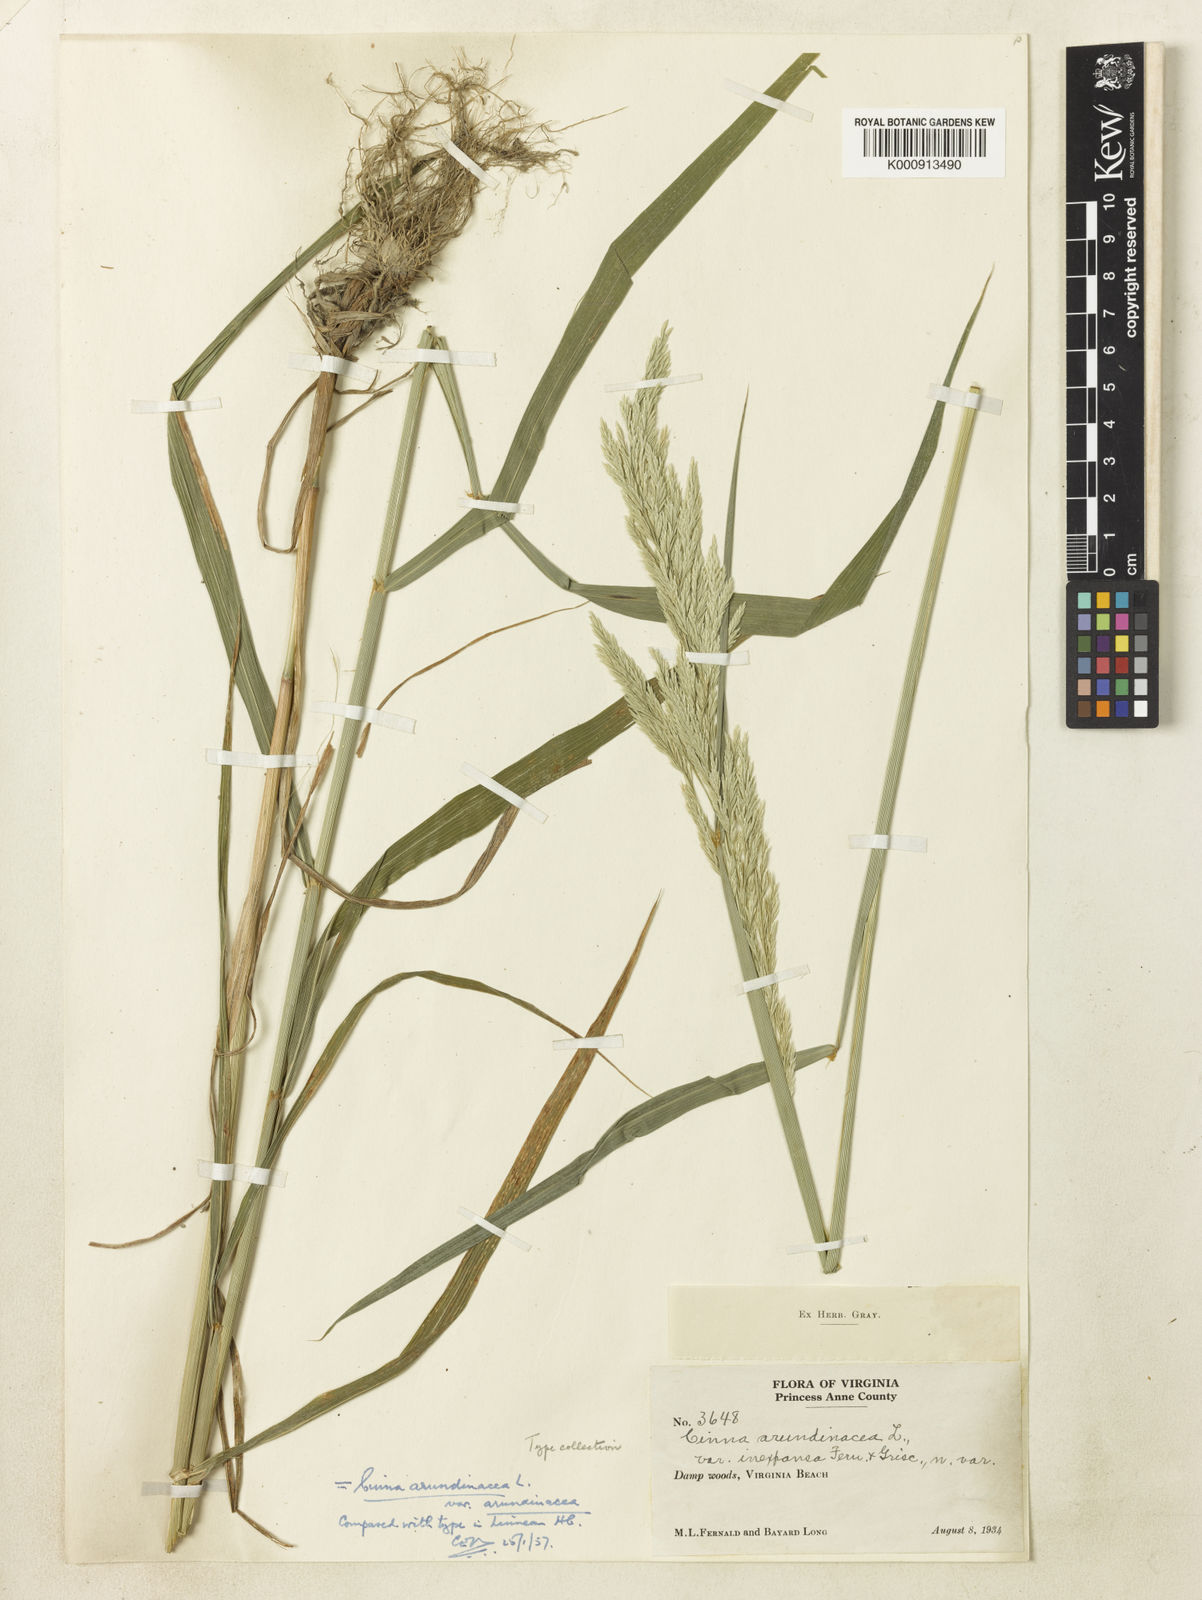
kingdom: Plantae
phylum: Tracheophyta
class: Liliopsida
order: Poales
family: Poaceae
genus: Cinna
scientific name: Cinna arundinacea
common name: Stout woodreed
